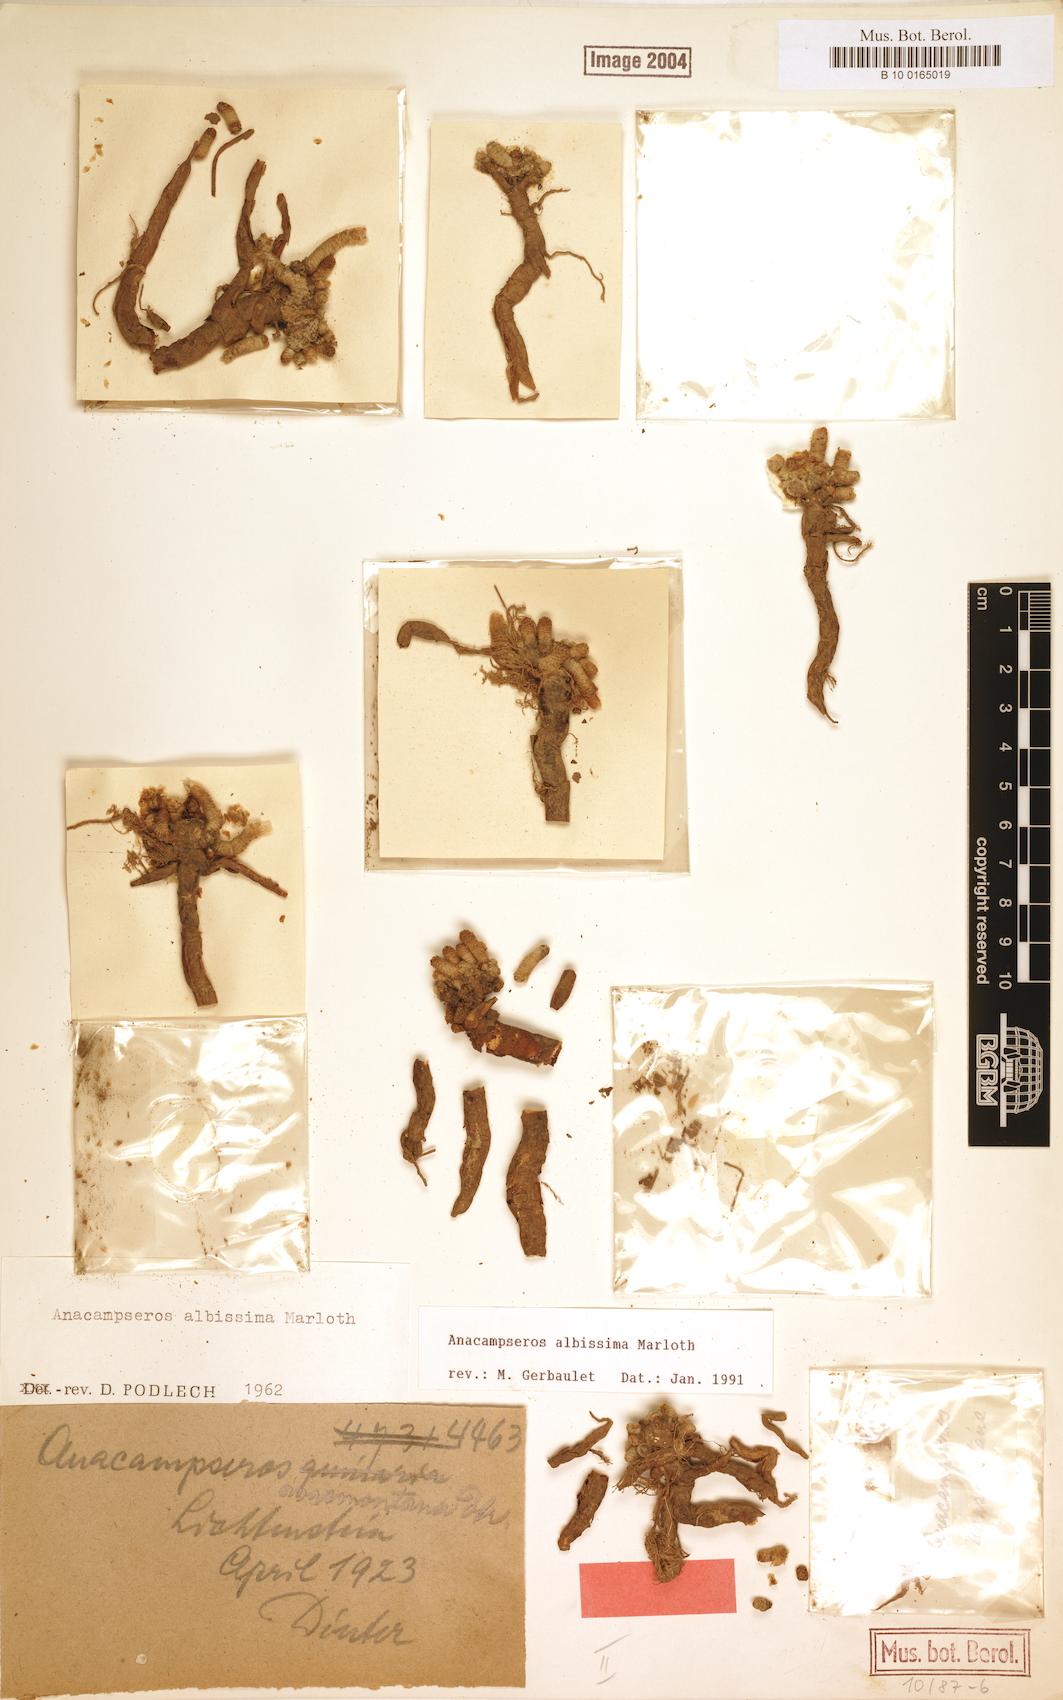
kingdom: Plantae
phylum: Tracheophyta
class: Magnoliopsida
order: Caryophyllales
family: Anacampserotaceae
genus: Avonia
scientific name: Avonia albissima
